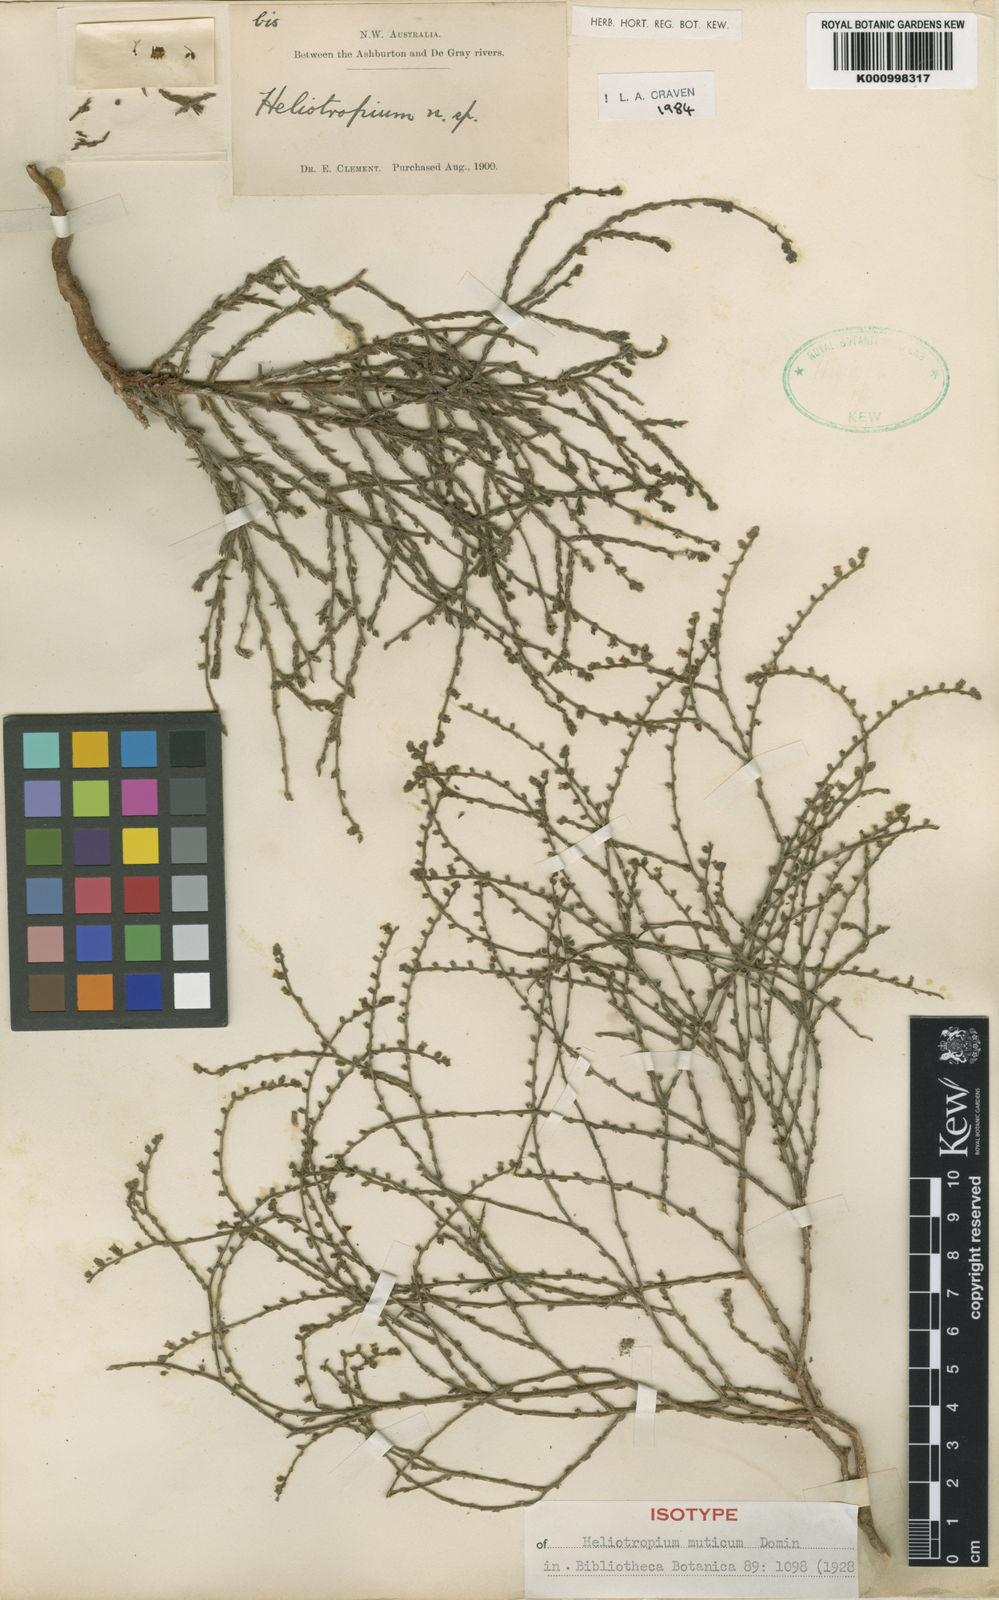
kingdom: Plantae
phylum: Tracheophyta
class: Magnoliopsida
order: Boraginales
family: Heliotropiaceae
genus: Euploca
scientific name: Euploca mutica
